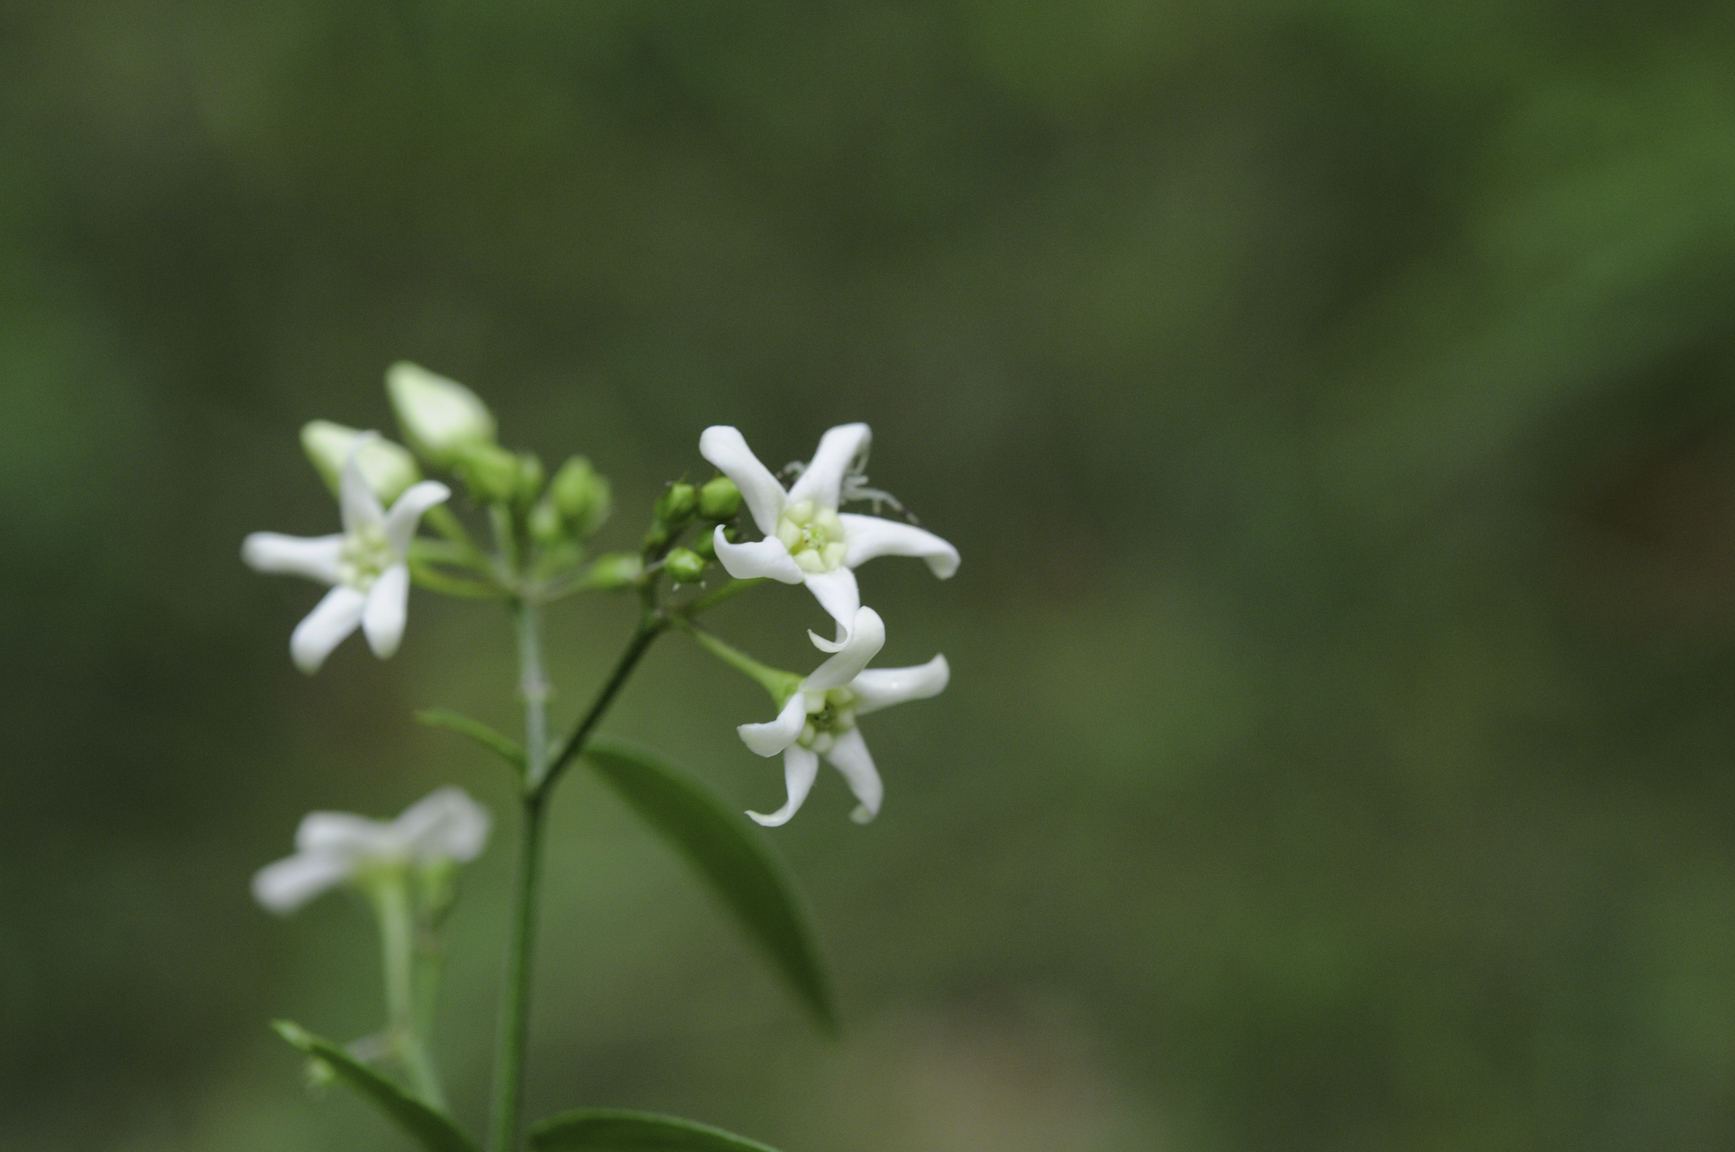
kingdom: Plantae
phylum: Tracheophyta
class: Magnoliopsida
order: Gentianales
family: Apocynaceae
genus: Vincetoxicum
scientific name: Vincetoxicum hirundinaria
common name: White swallowwort
